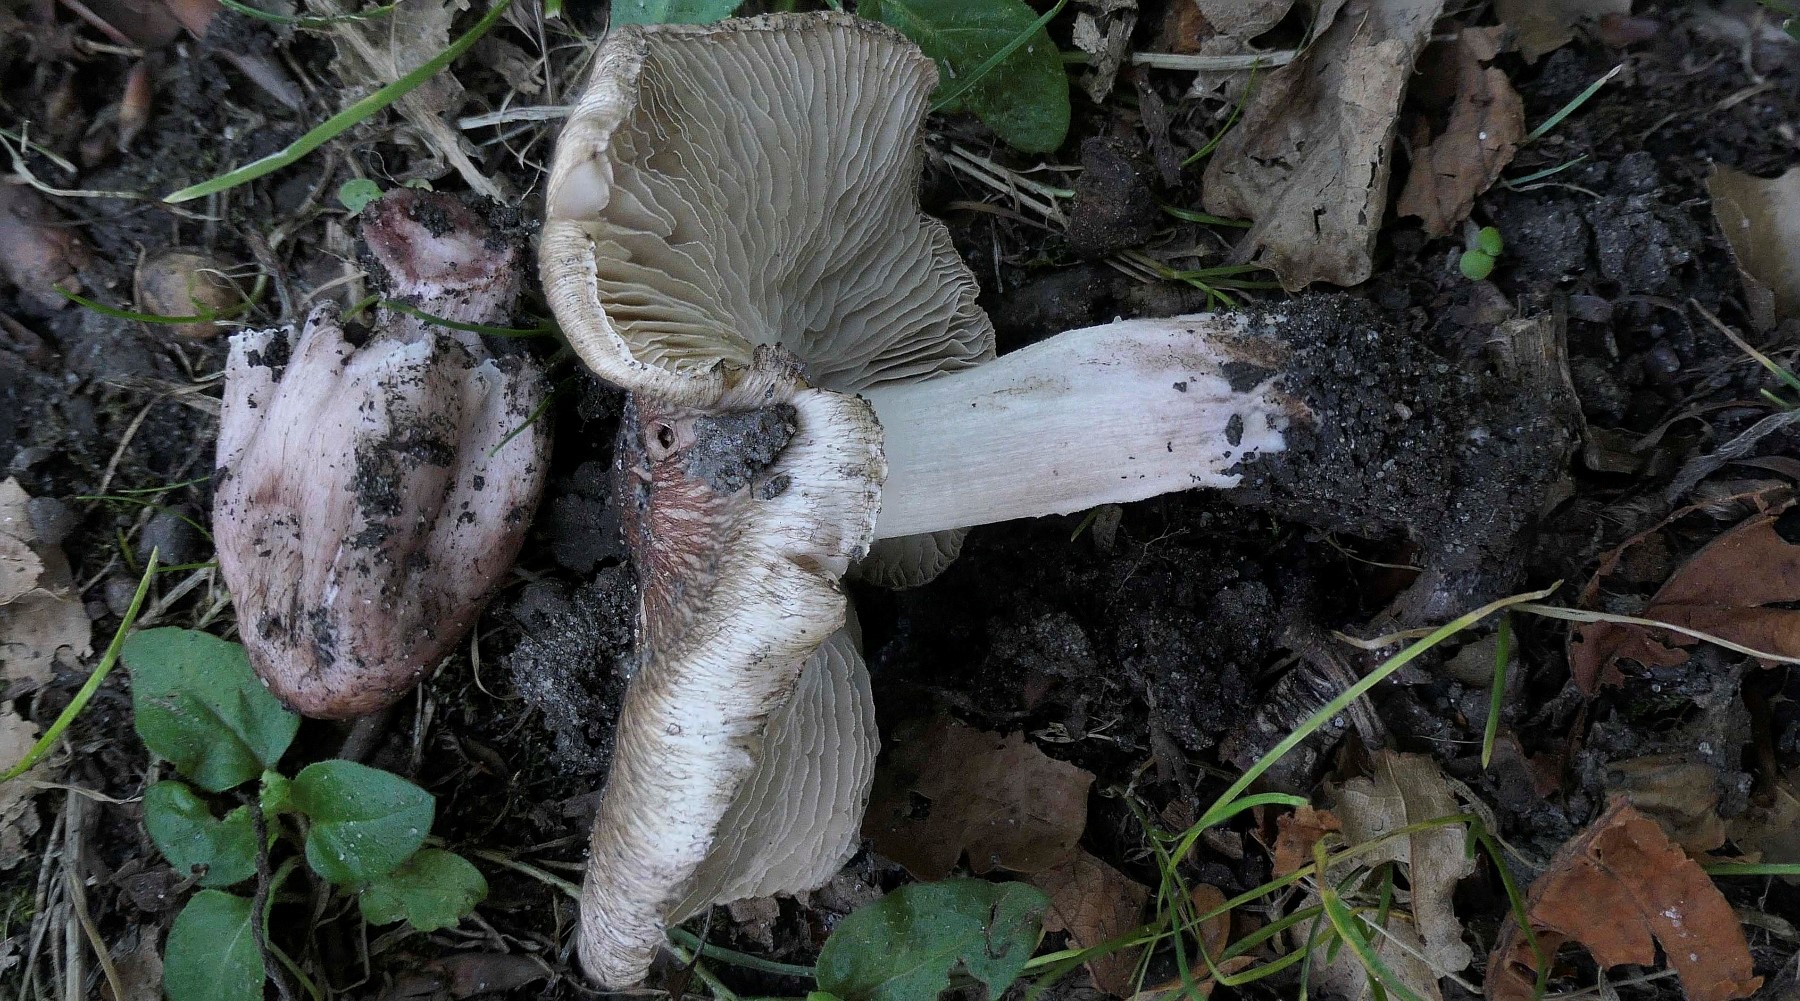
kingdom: Fungi
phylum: Basidiomycota
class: Agaricomycetes
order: Agaricales
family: Inocybaceae
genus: Inosperma
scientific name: Inosperma adaequatum
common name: vinrød trævlhat
